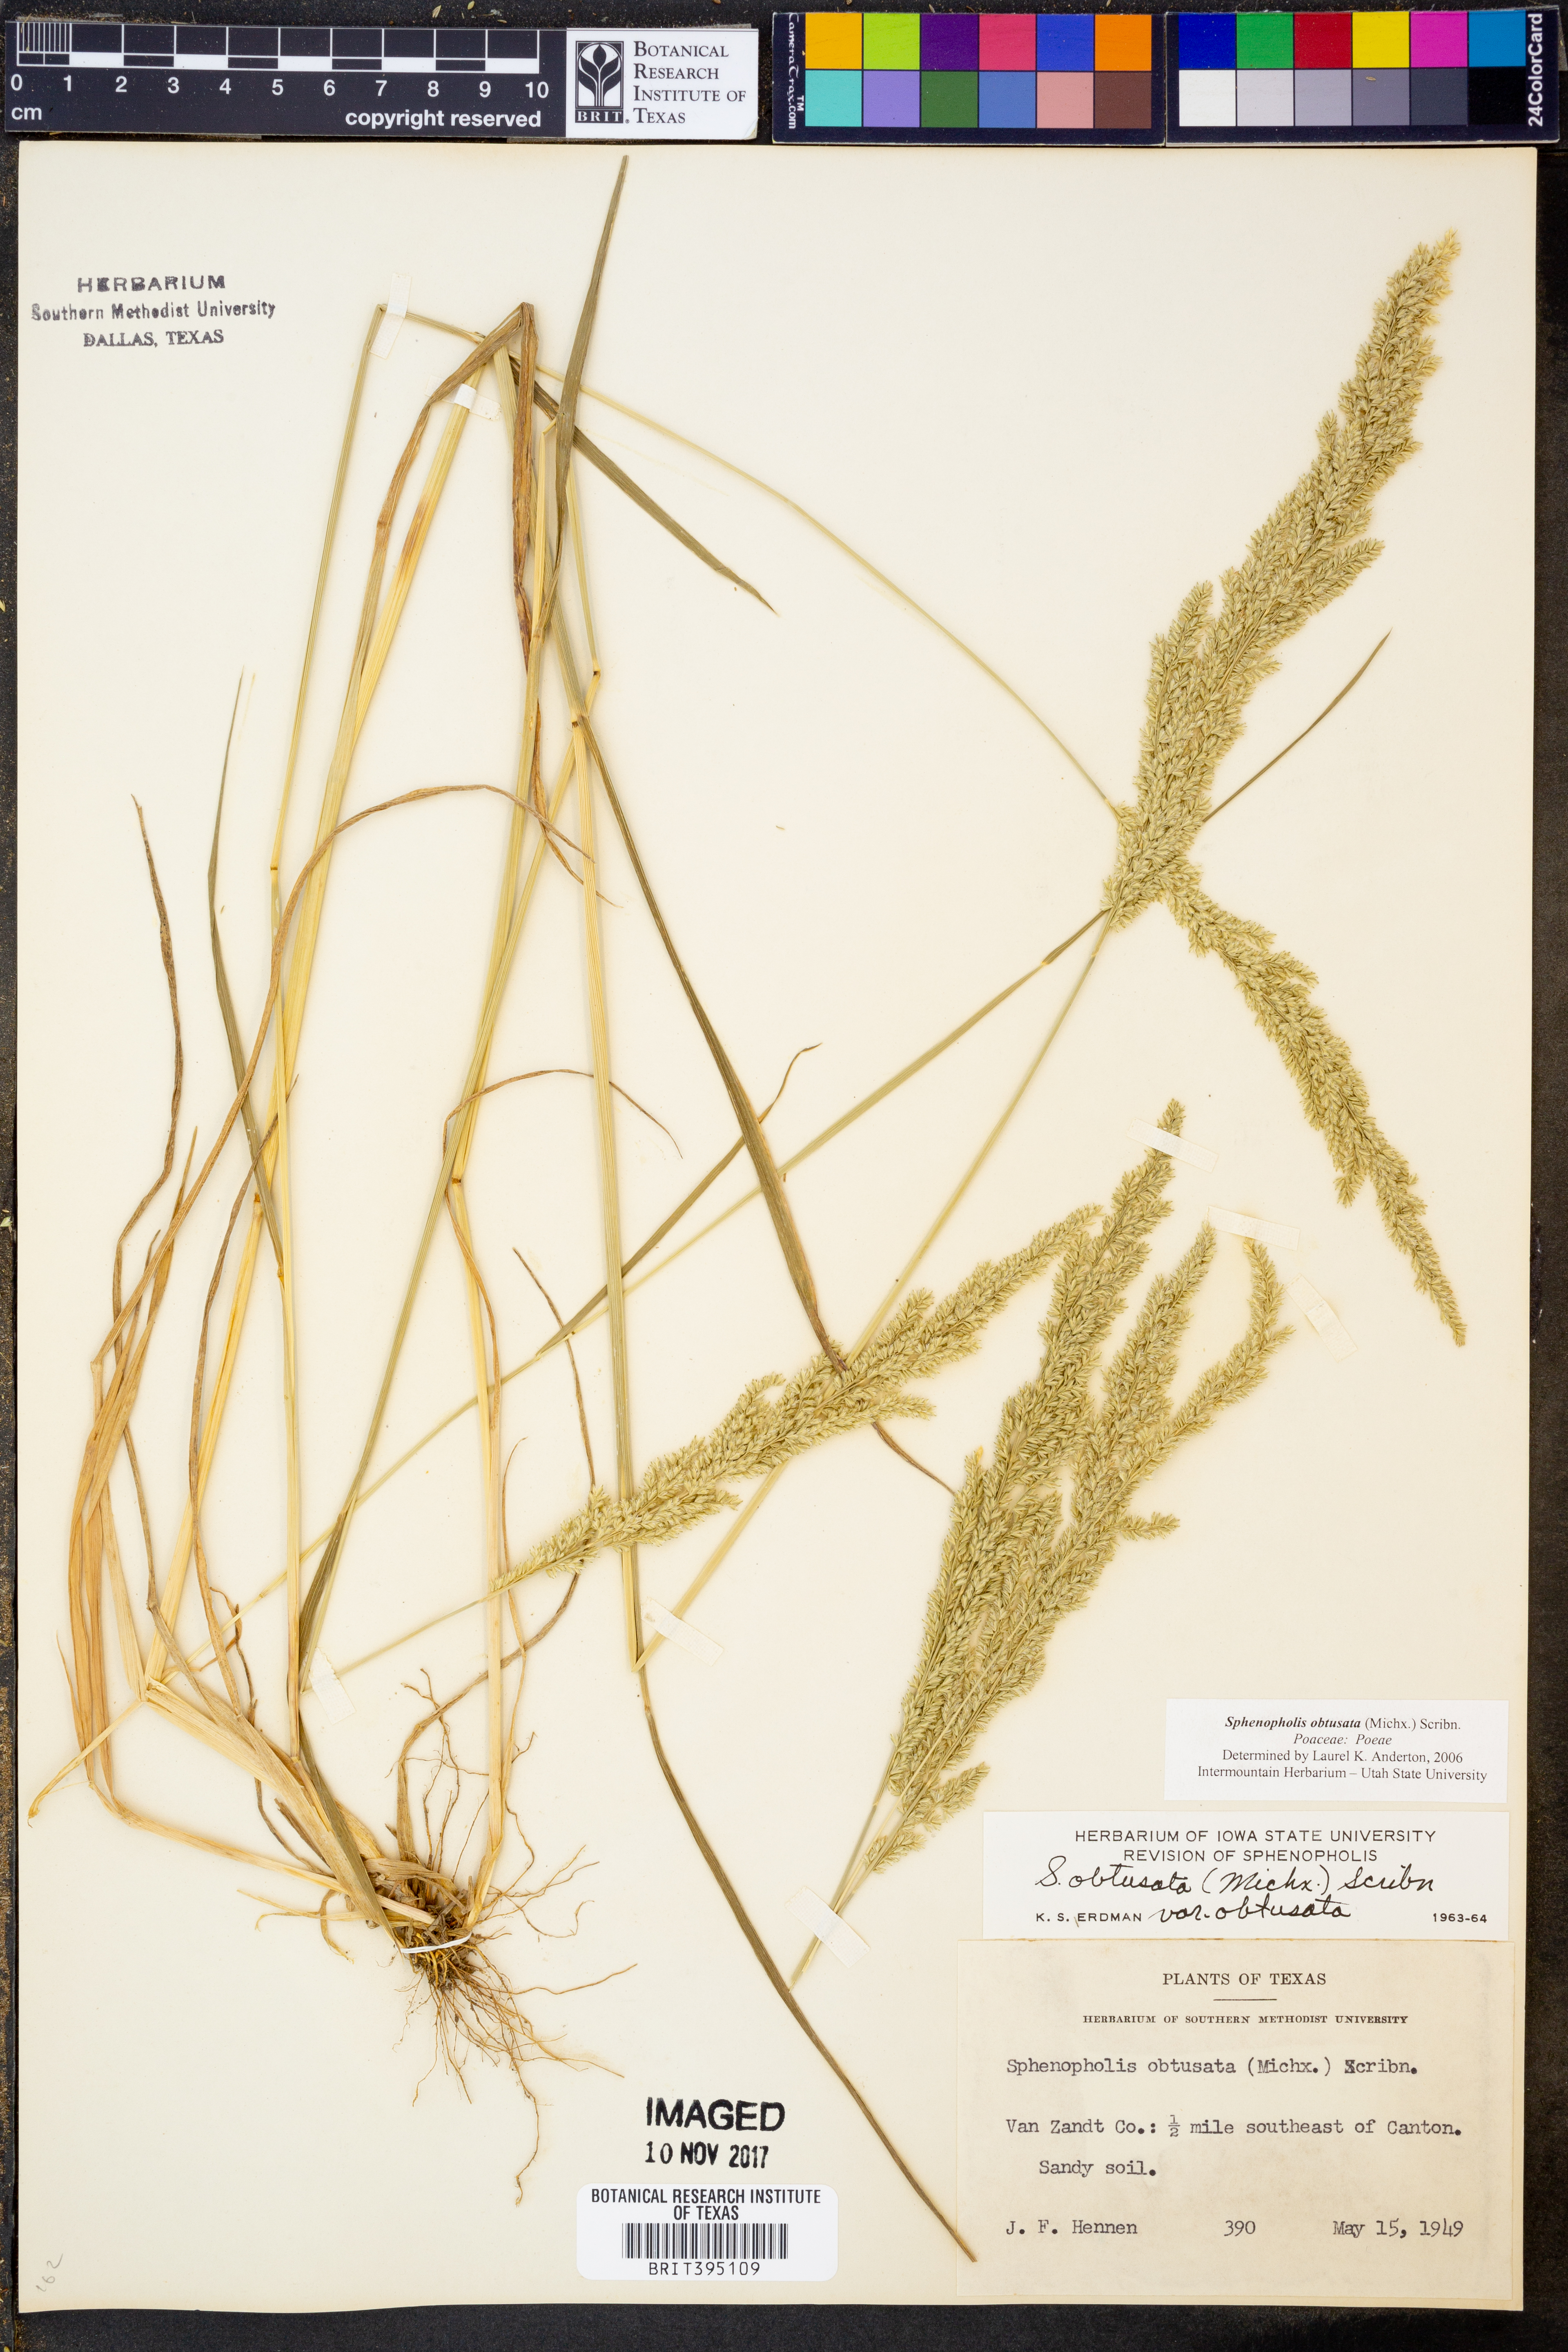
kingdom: Plantae
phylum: Tracheophyta
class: Liliopsida
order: Poales
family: Poaceae
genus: Sphenopholis
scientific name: Sphenopholis obtusata
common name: Prairie grass
